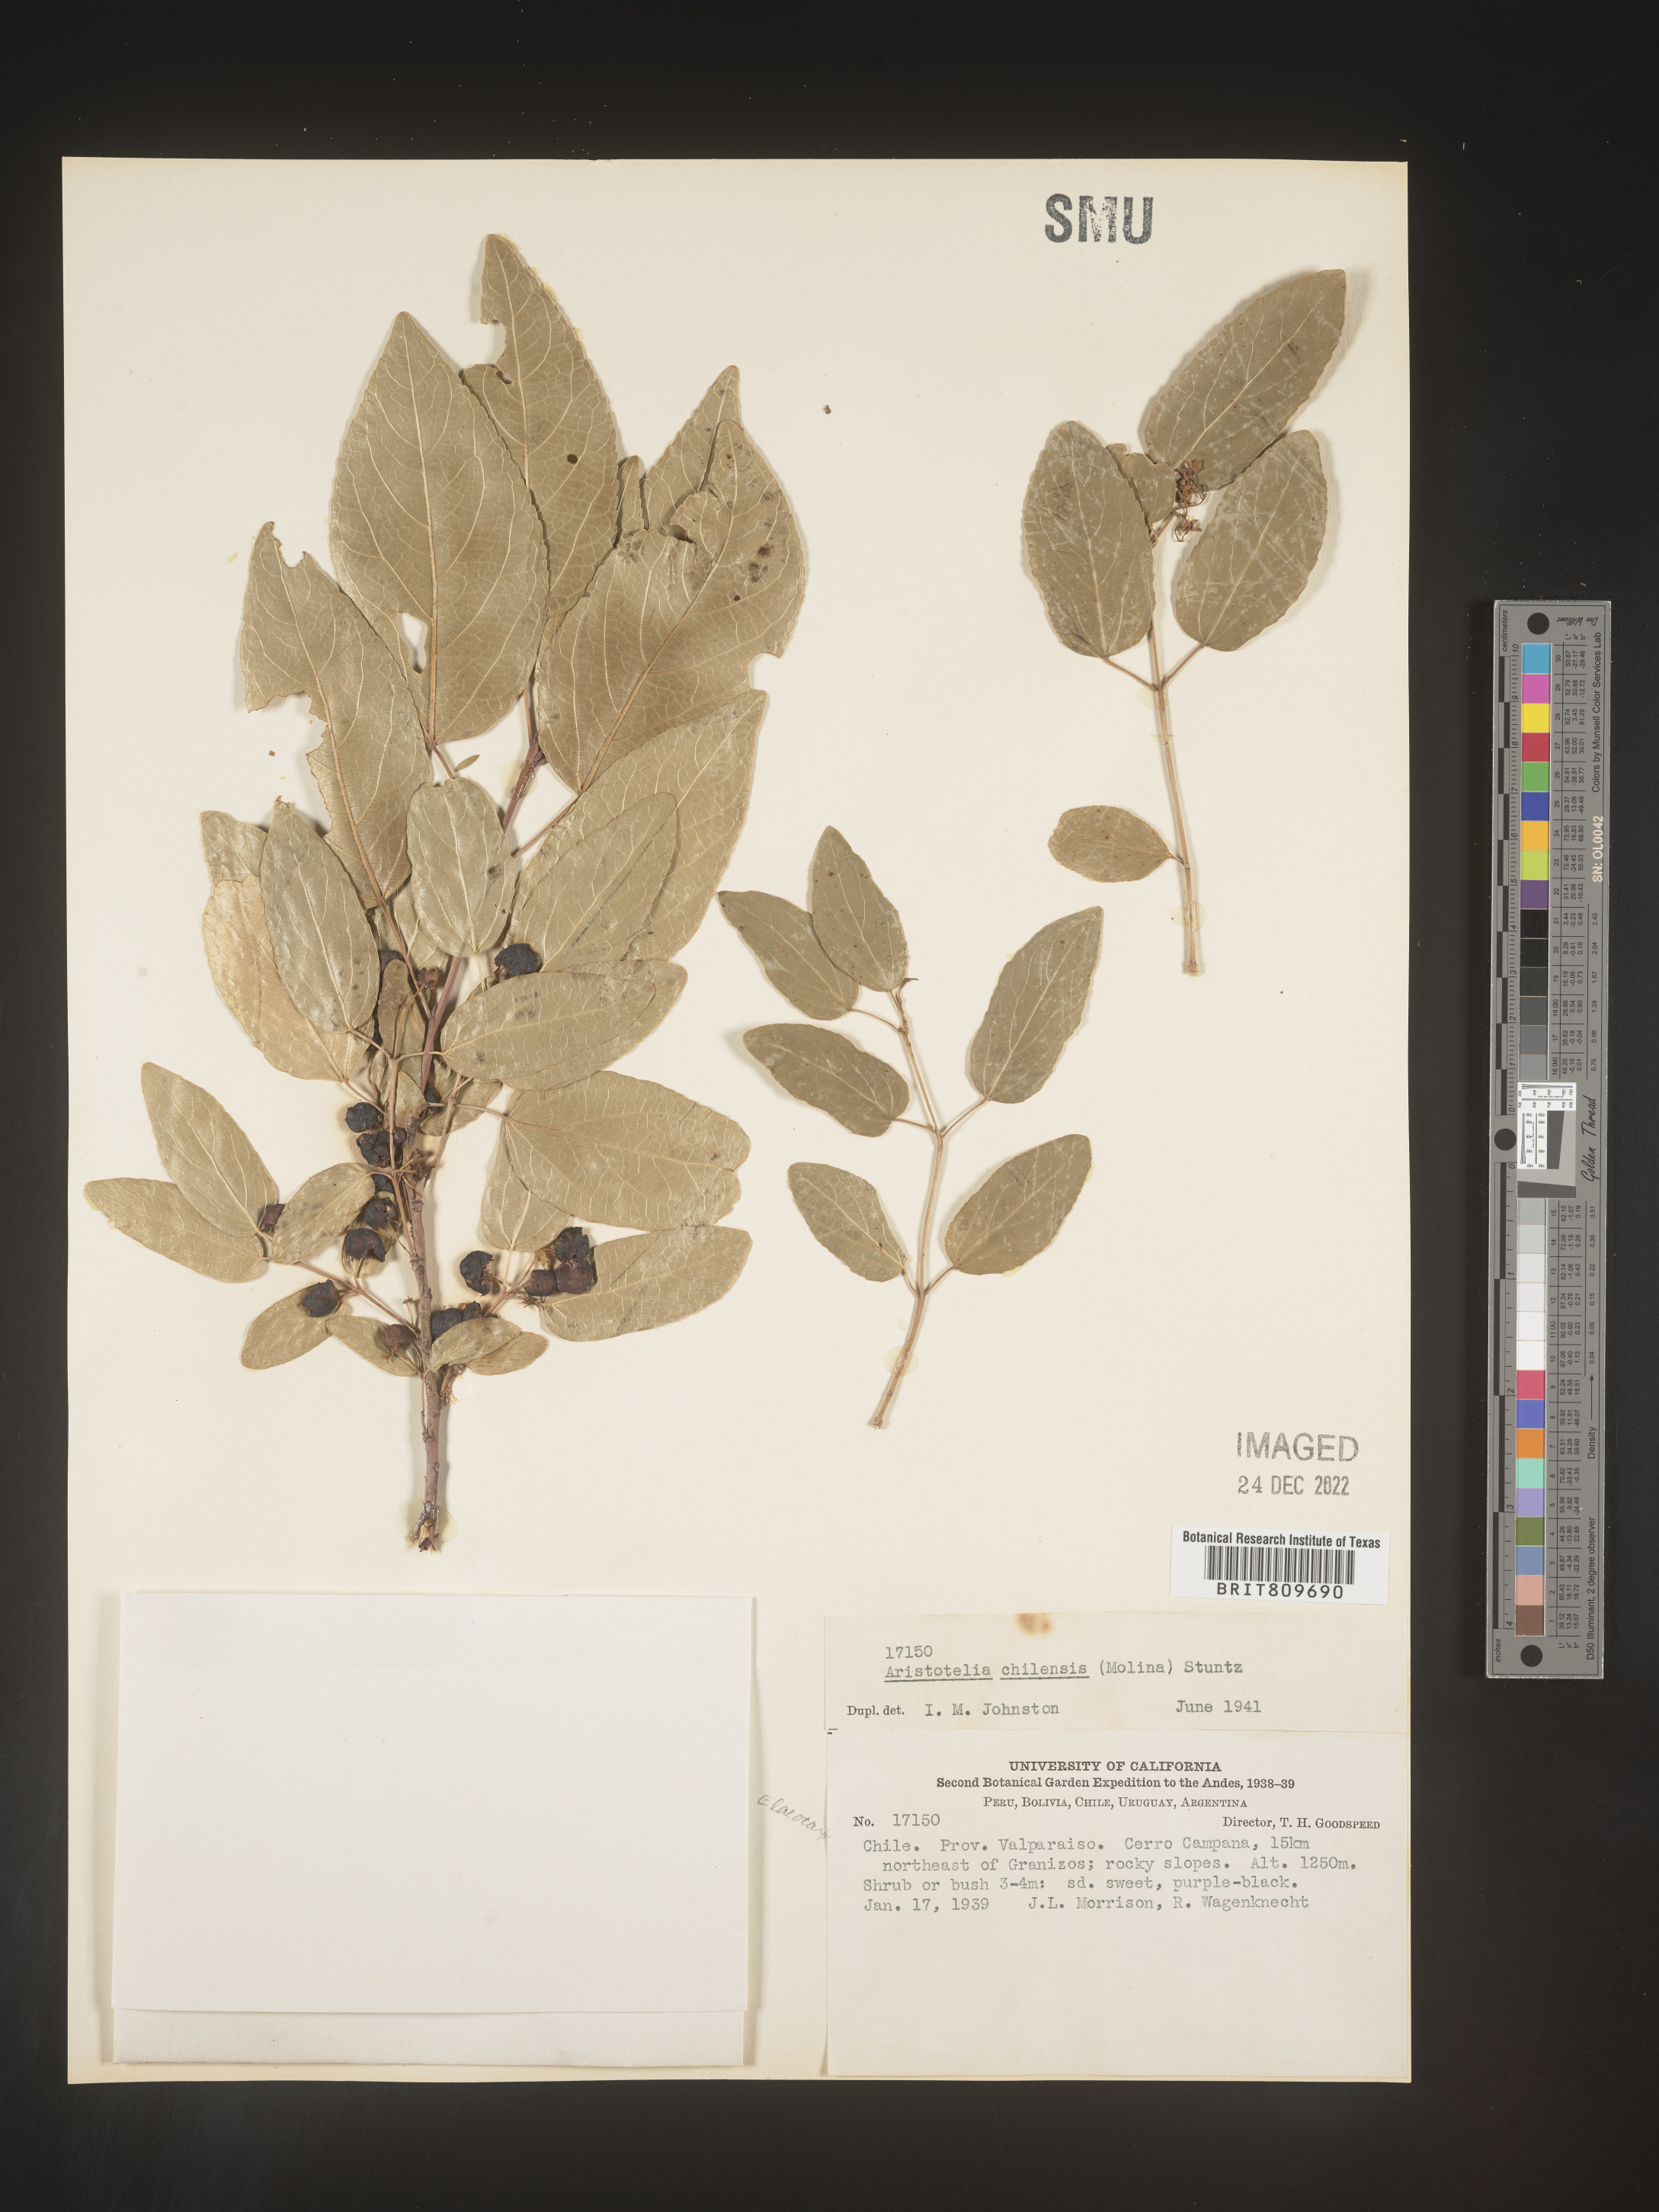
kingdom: Plantae
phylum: Tracheophyta
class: Magnoliopsida
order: Oxalidales
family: Elaeocarpaceae
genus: Aristotelia
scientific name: Aristotelia
